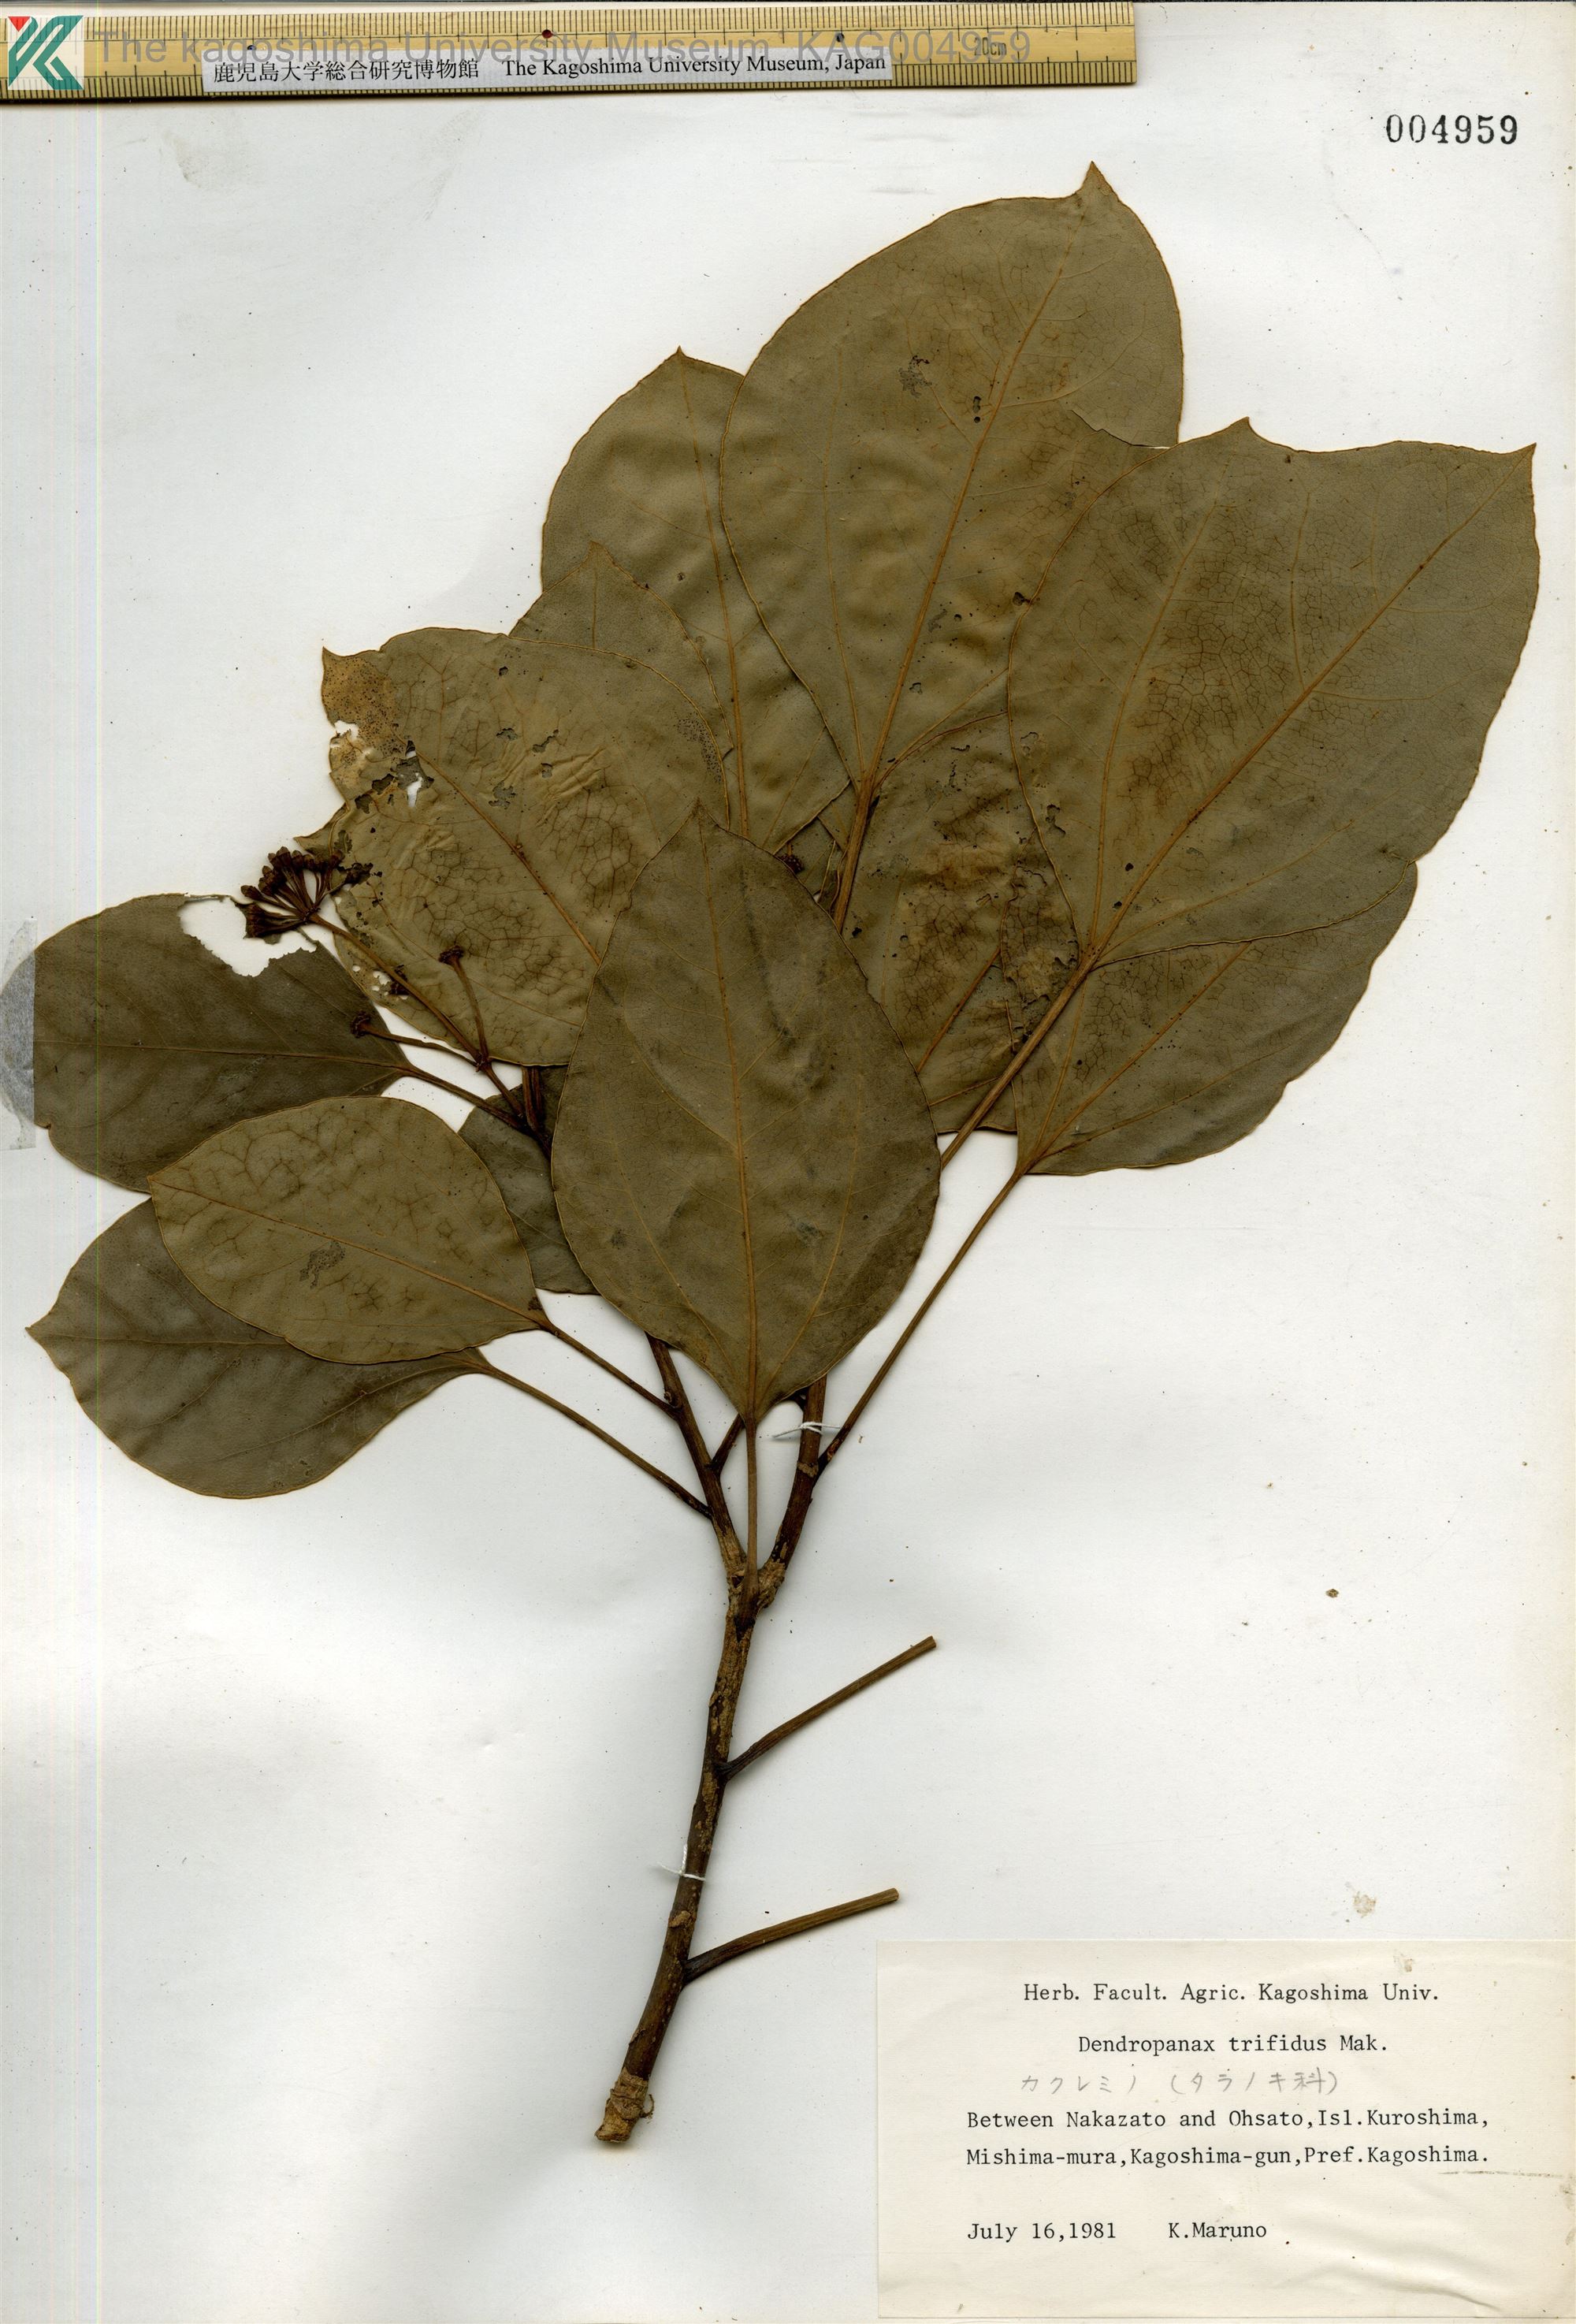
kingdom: Plantae
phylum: Tracheophyta
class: Magnoliopsida
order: Apiales
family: Araliaceae
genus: Dendropanax
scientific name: Dendropanax trifidus
